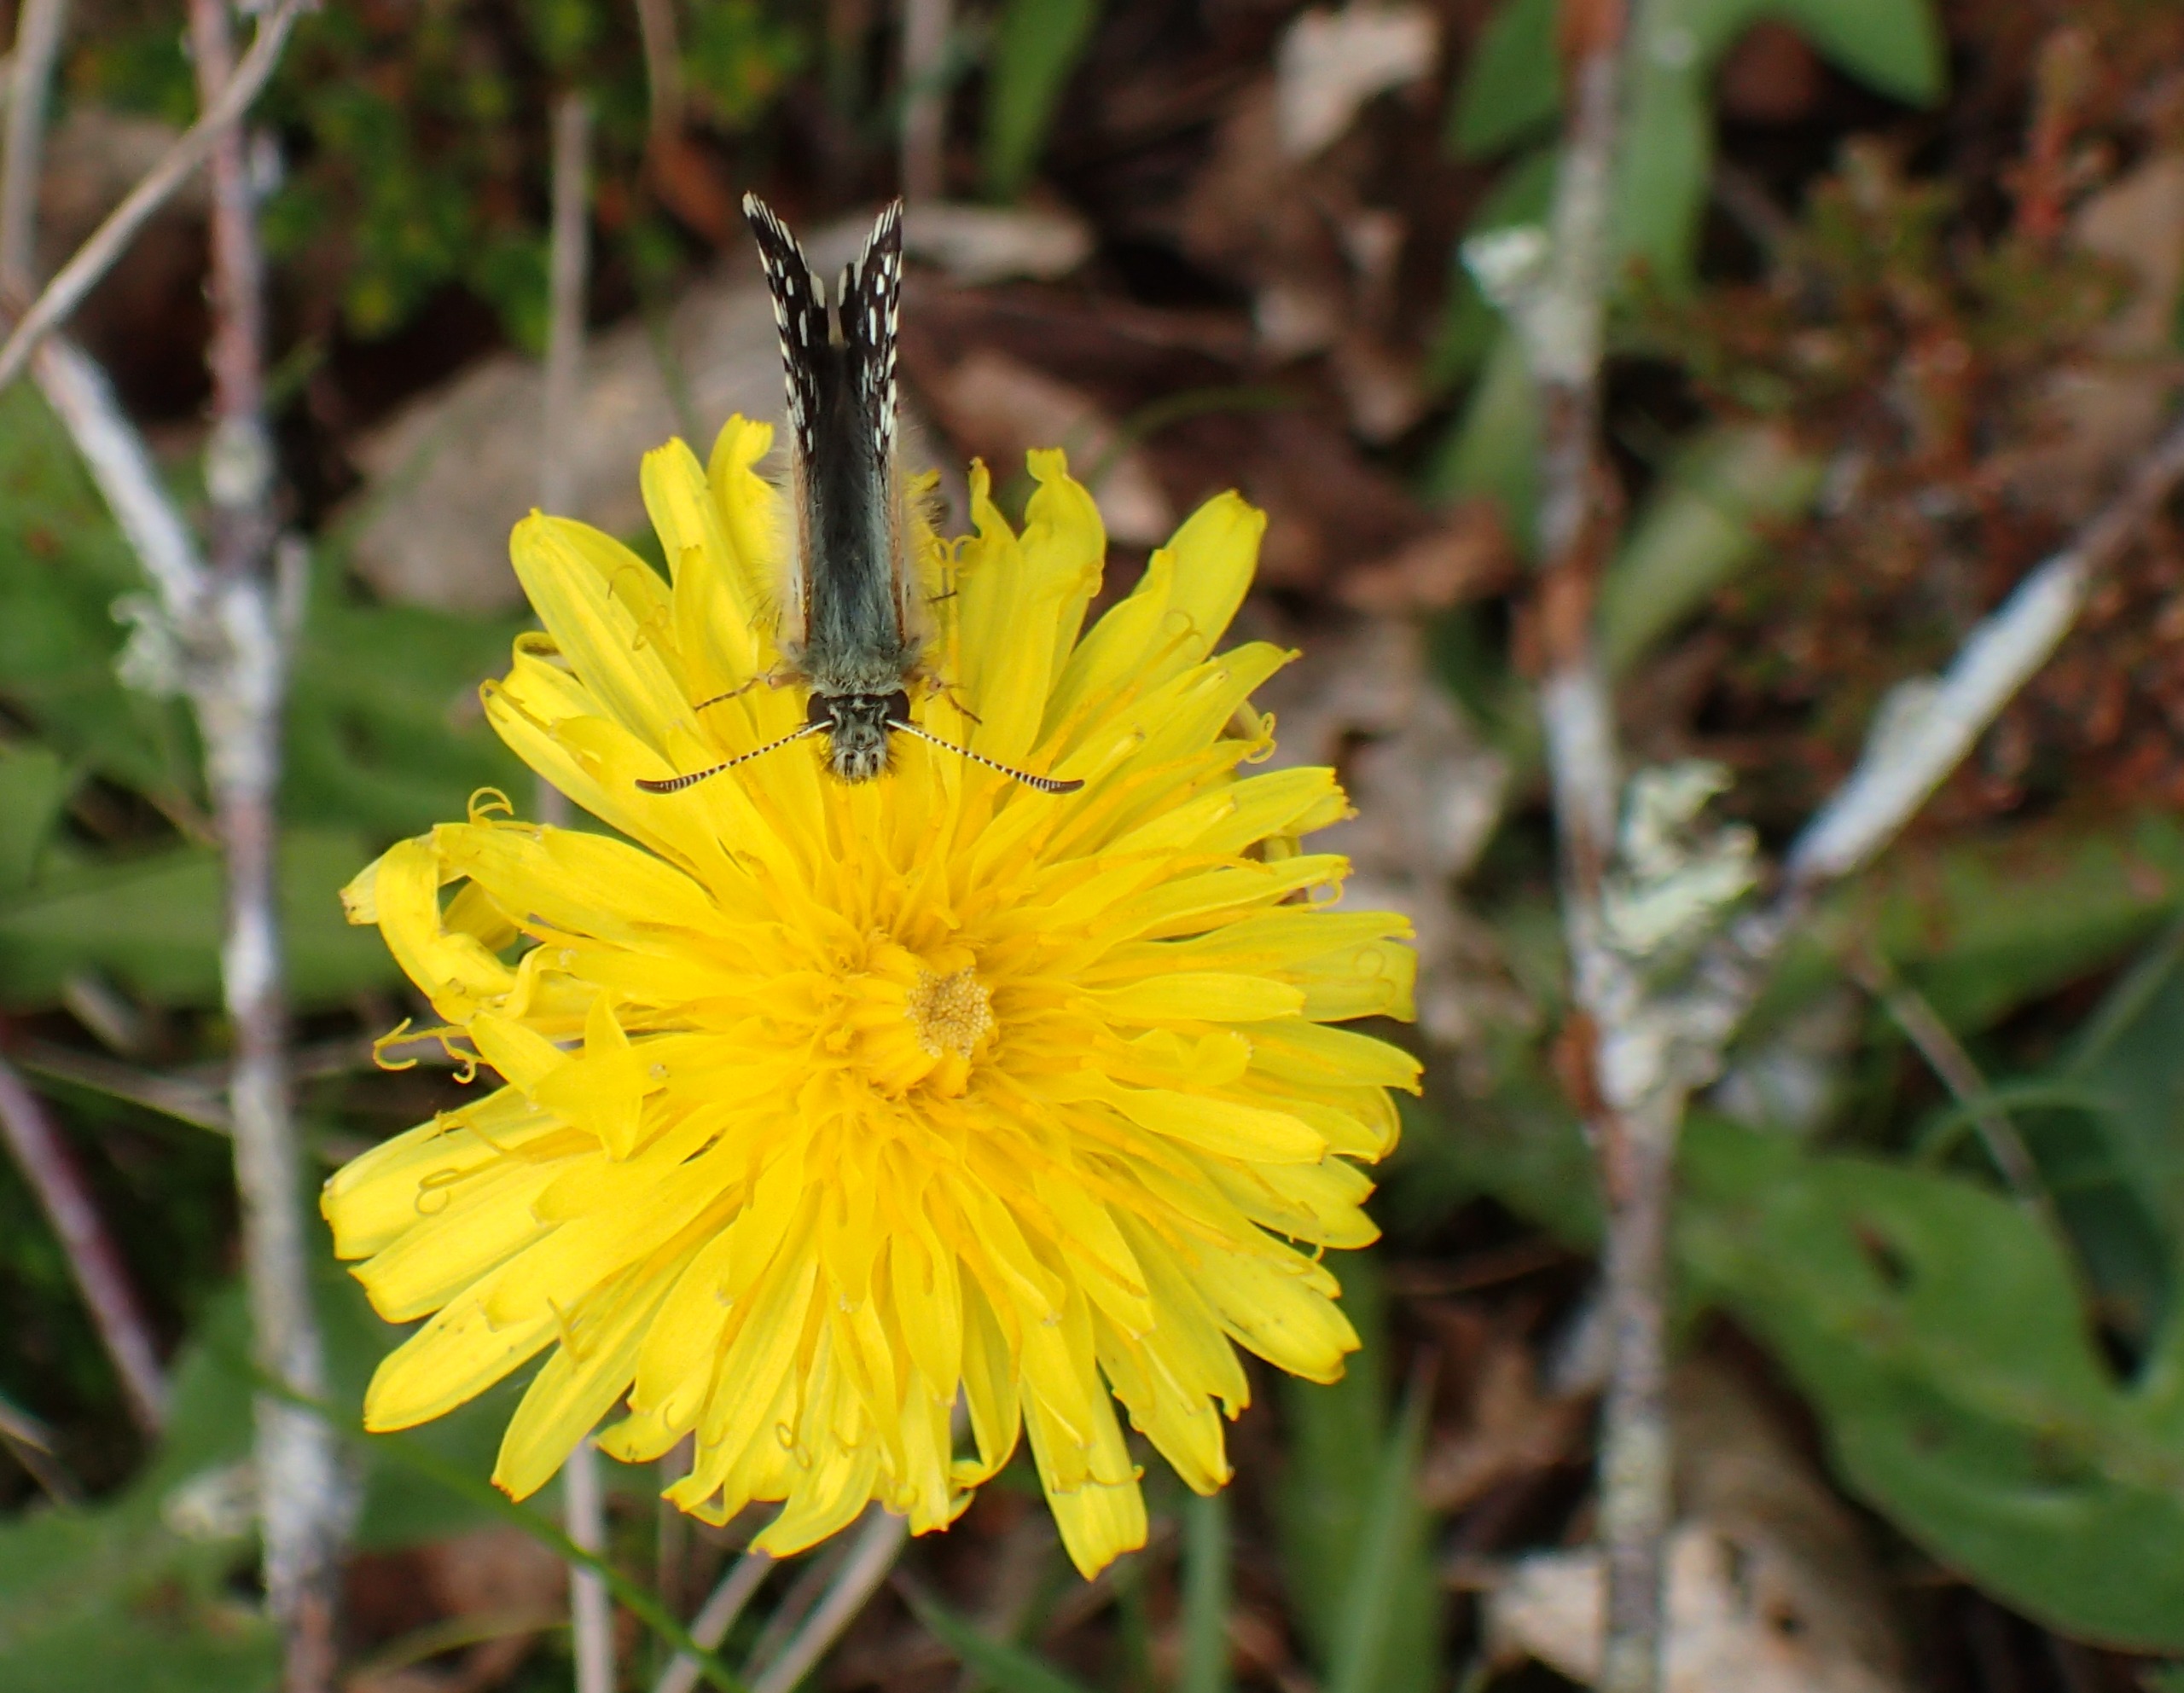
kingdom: Animalia
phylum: Arthropoda
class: Insecta
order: Lepidoptera
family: Hesperiidae
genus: Pyrgus
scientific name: Pyrgus malvae
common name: Spættet bredpande
